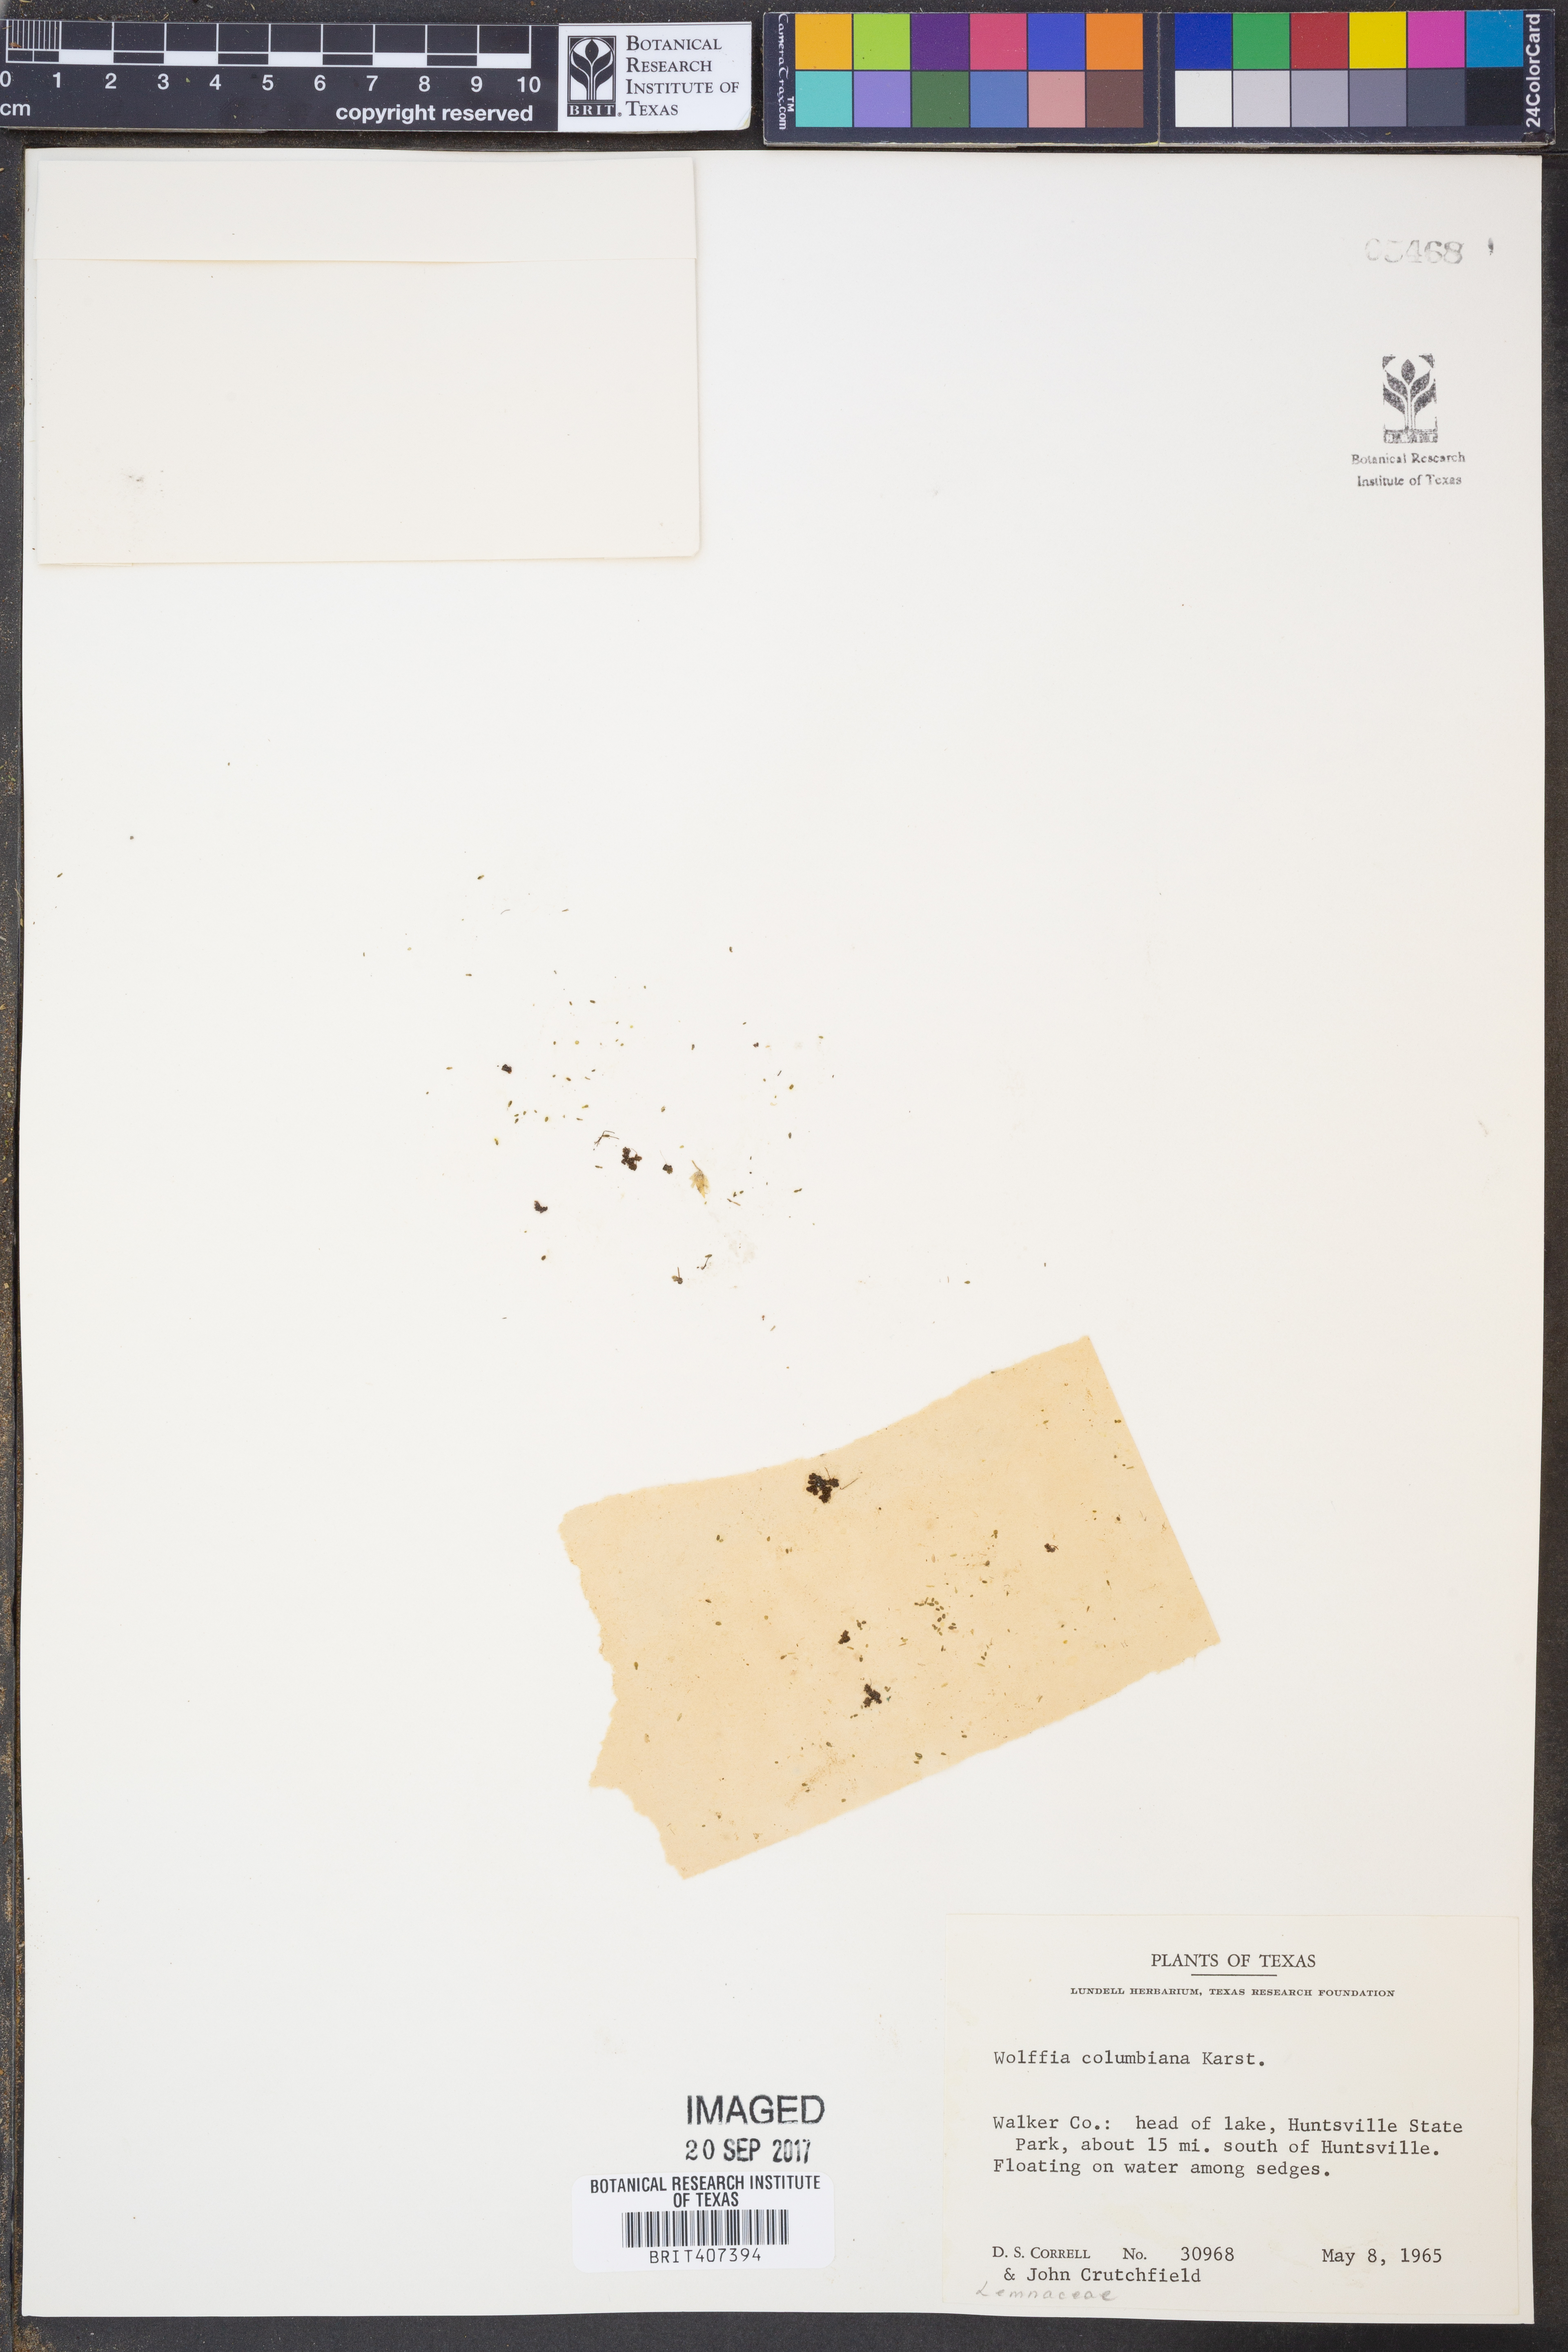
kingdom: Plantae
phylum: Tracheophyta
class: Liliopsida
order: Alismatales
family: Araceae
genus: Wolffia
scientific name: Wolffia columbiana
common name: Columbia watermeal
